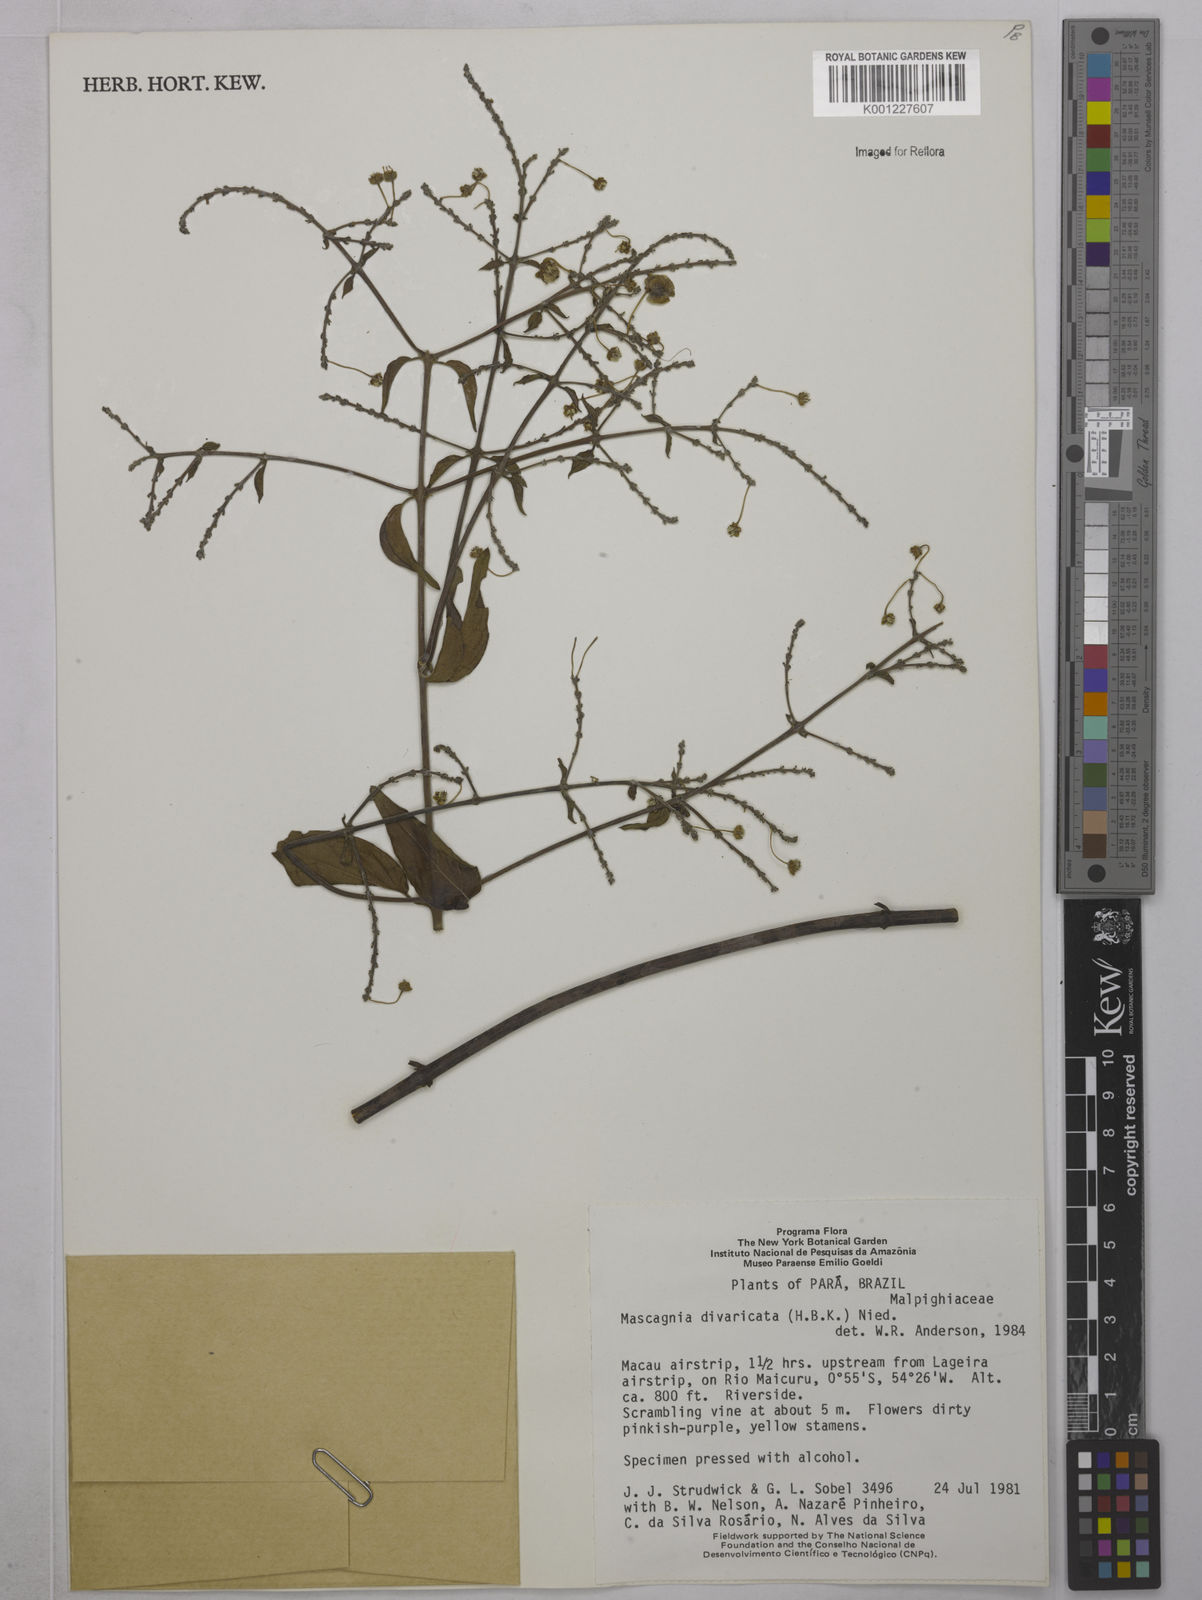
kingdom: Plantae
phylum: Tracheophyta
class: Magnoliopsida
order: Malpighiales
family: Malpighiaceae
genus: Mascagnia
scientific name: Mascagnia divaricata
